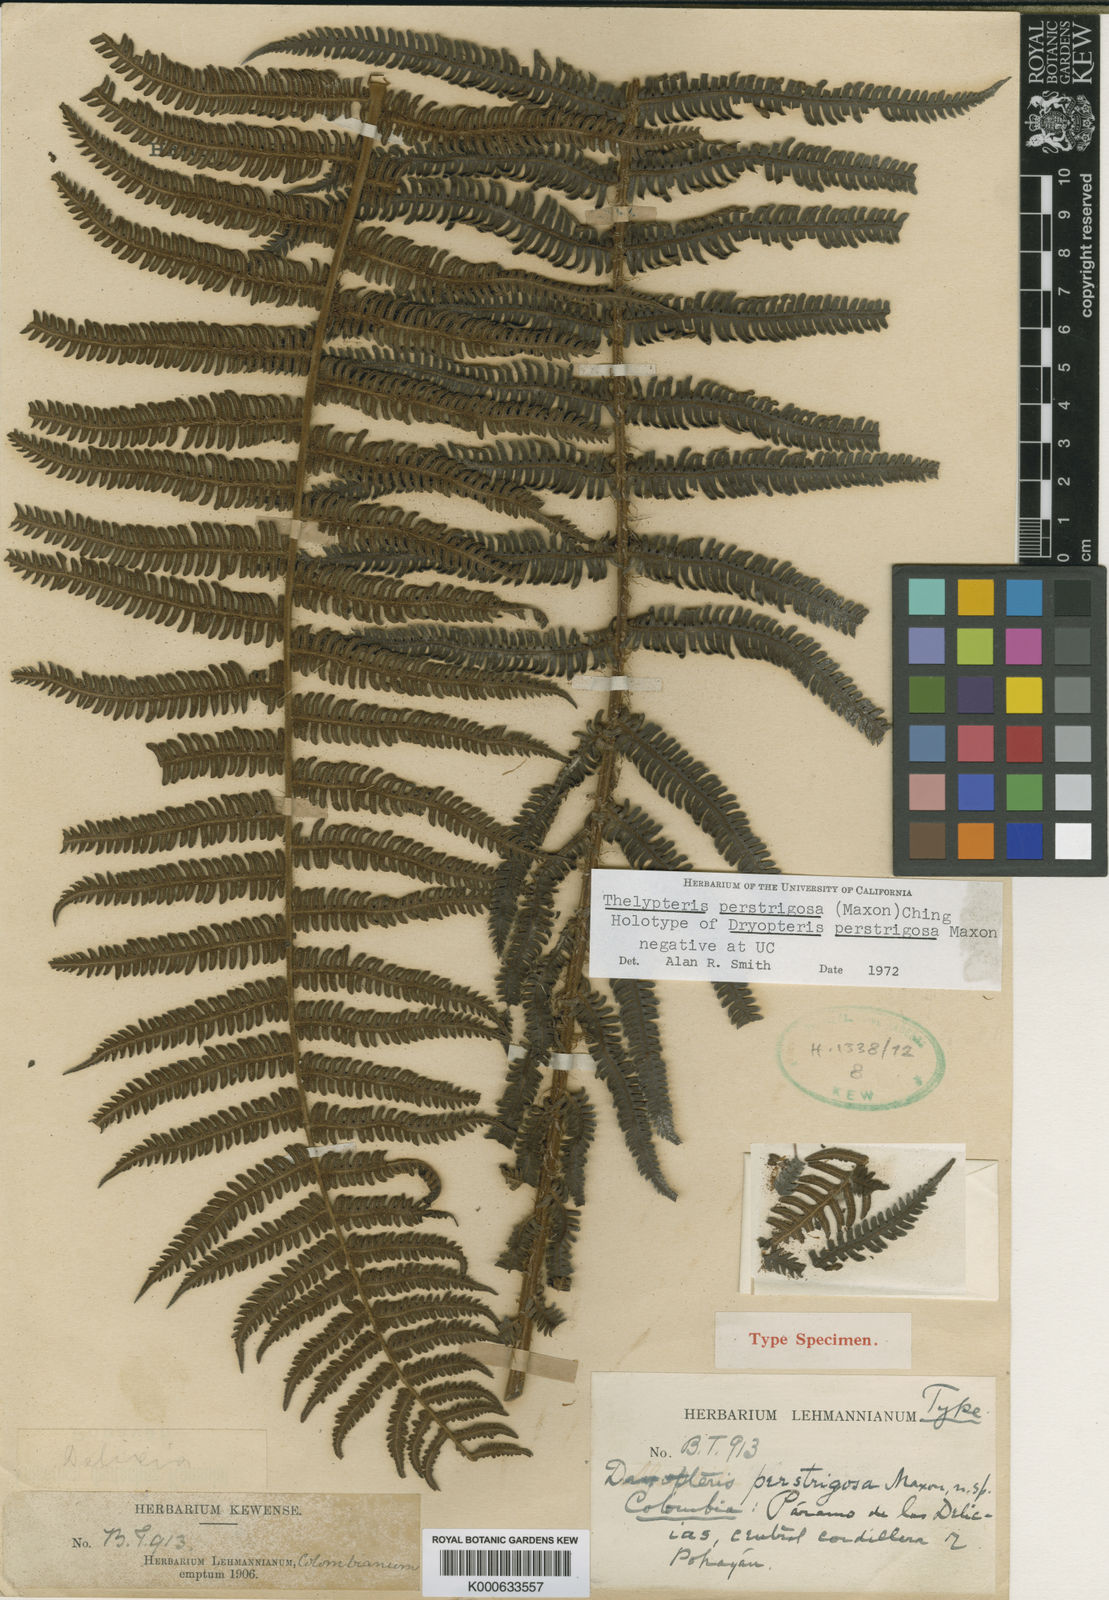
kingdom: Plantae
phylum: Tracheophyta
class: Polypodiopsida
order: Polypodiales
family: Thelypteridaceae
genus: Amauropelta
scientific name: Amauropelta
